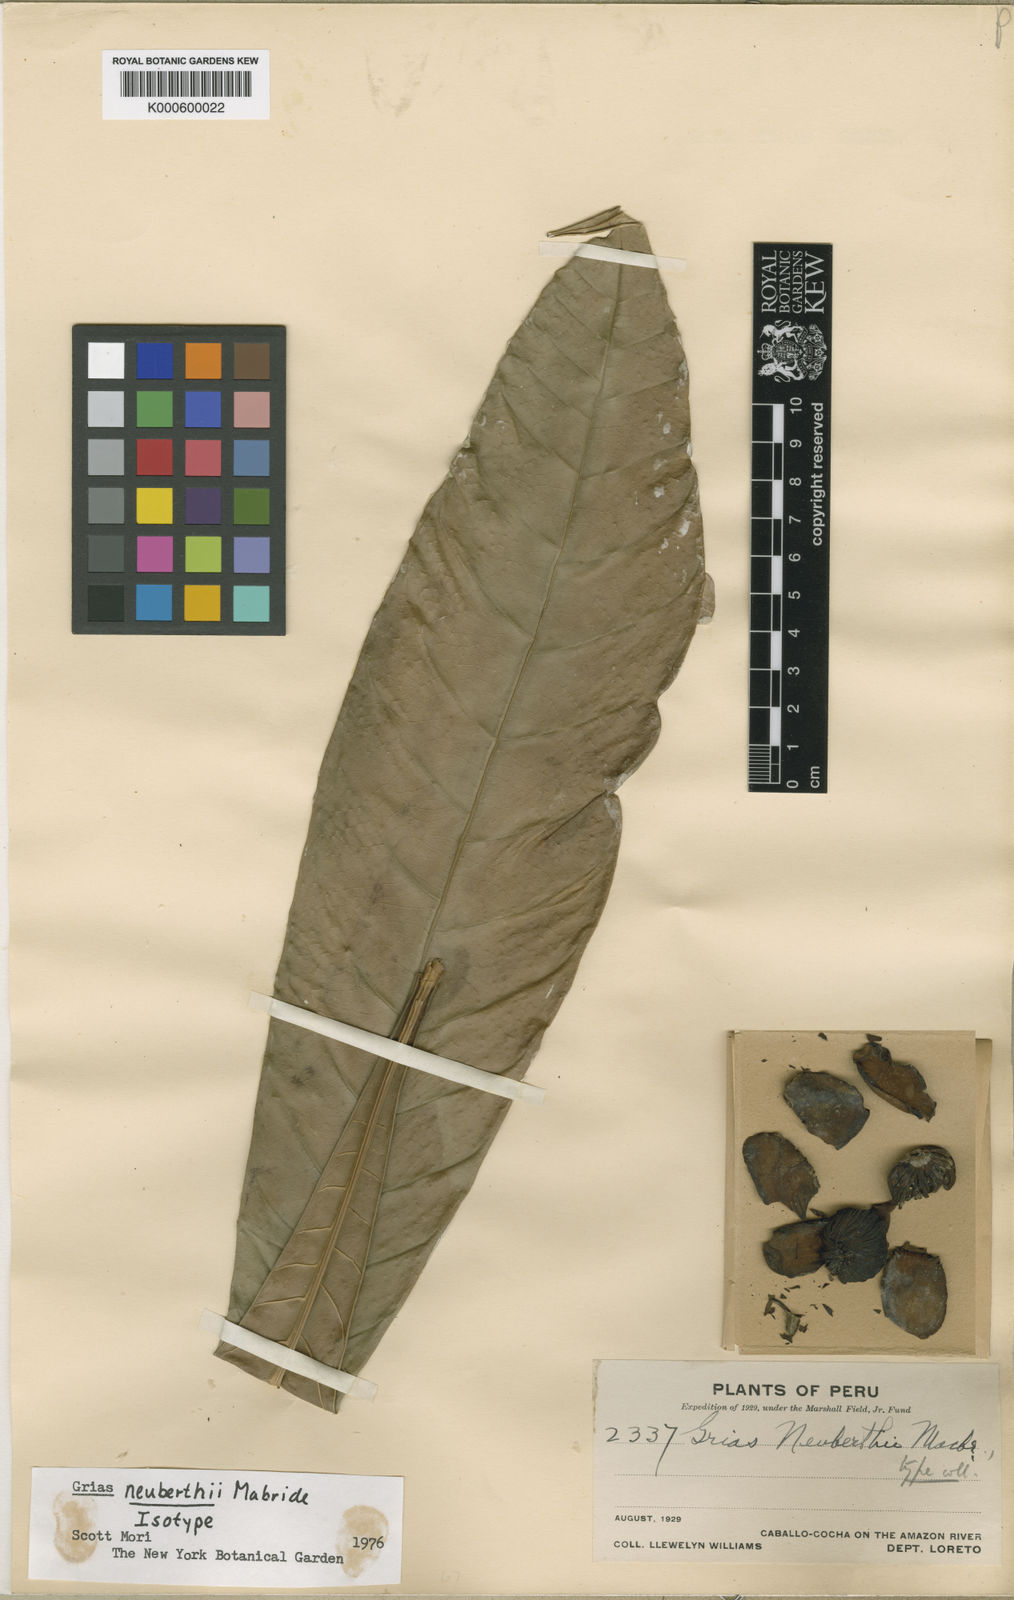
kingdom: Plantae
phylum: Tracheophyta
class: Magnoliopsida
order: Ericales
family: Lecythidaceae
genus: Grias
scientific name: Grias neuberthii
